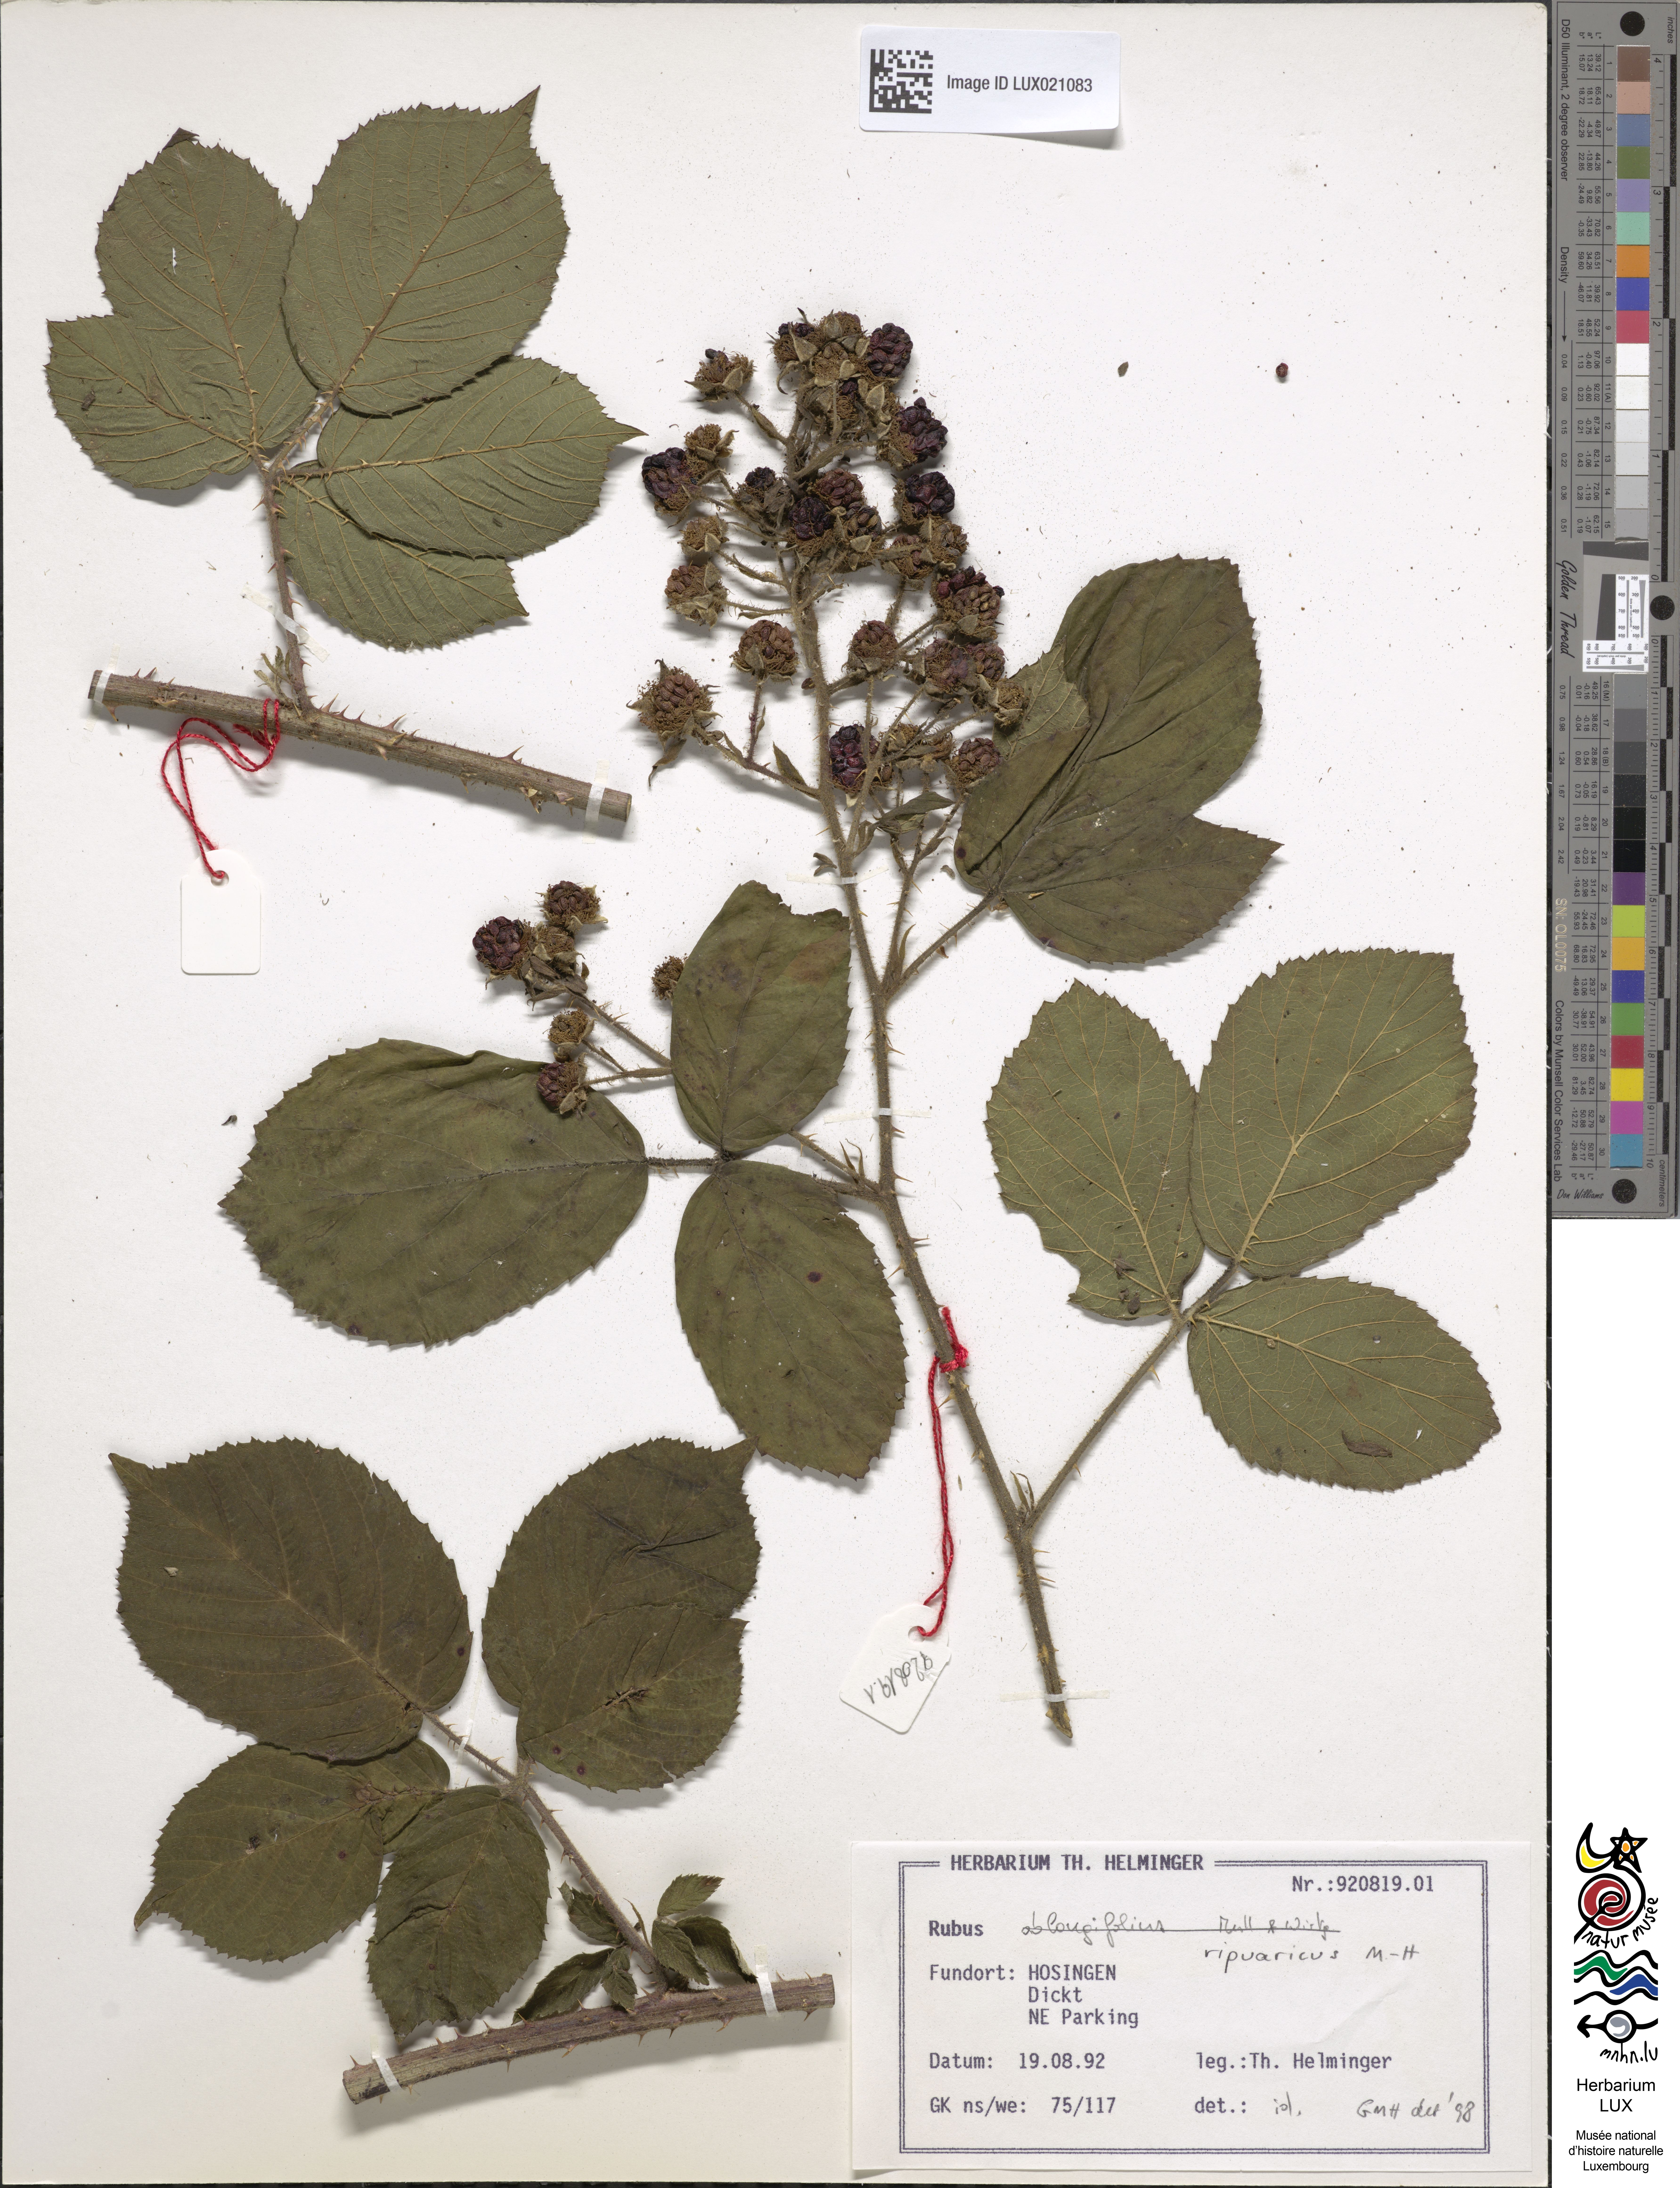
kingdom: Plantae
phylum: Tracheophyta
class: Magnoliopsida
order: Rosales
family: Rosaceae
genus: Rubus
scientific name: Rubus ripuaricus
